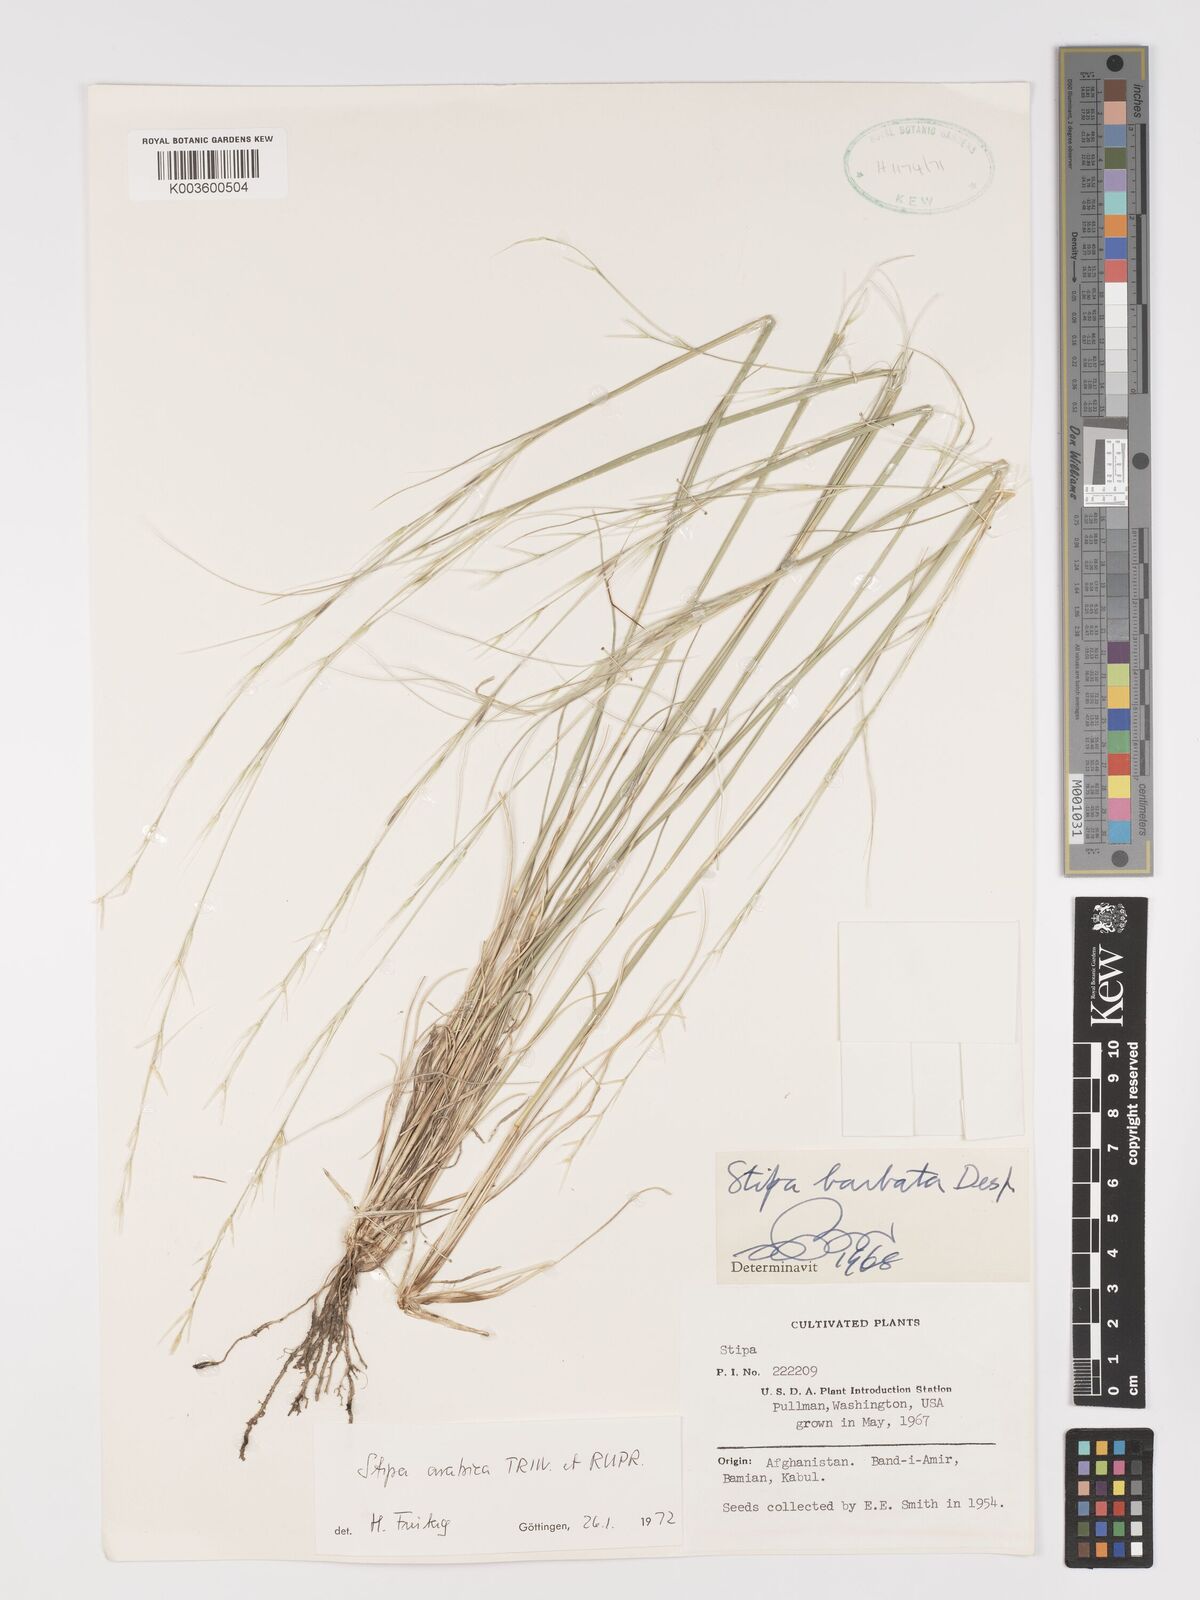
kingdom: Plantae
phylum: Tracheophyta
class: Liliopsida
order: Poales
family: Poaceae
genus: Stipa
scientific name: Stipa arabica
